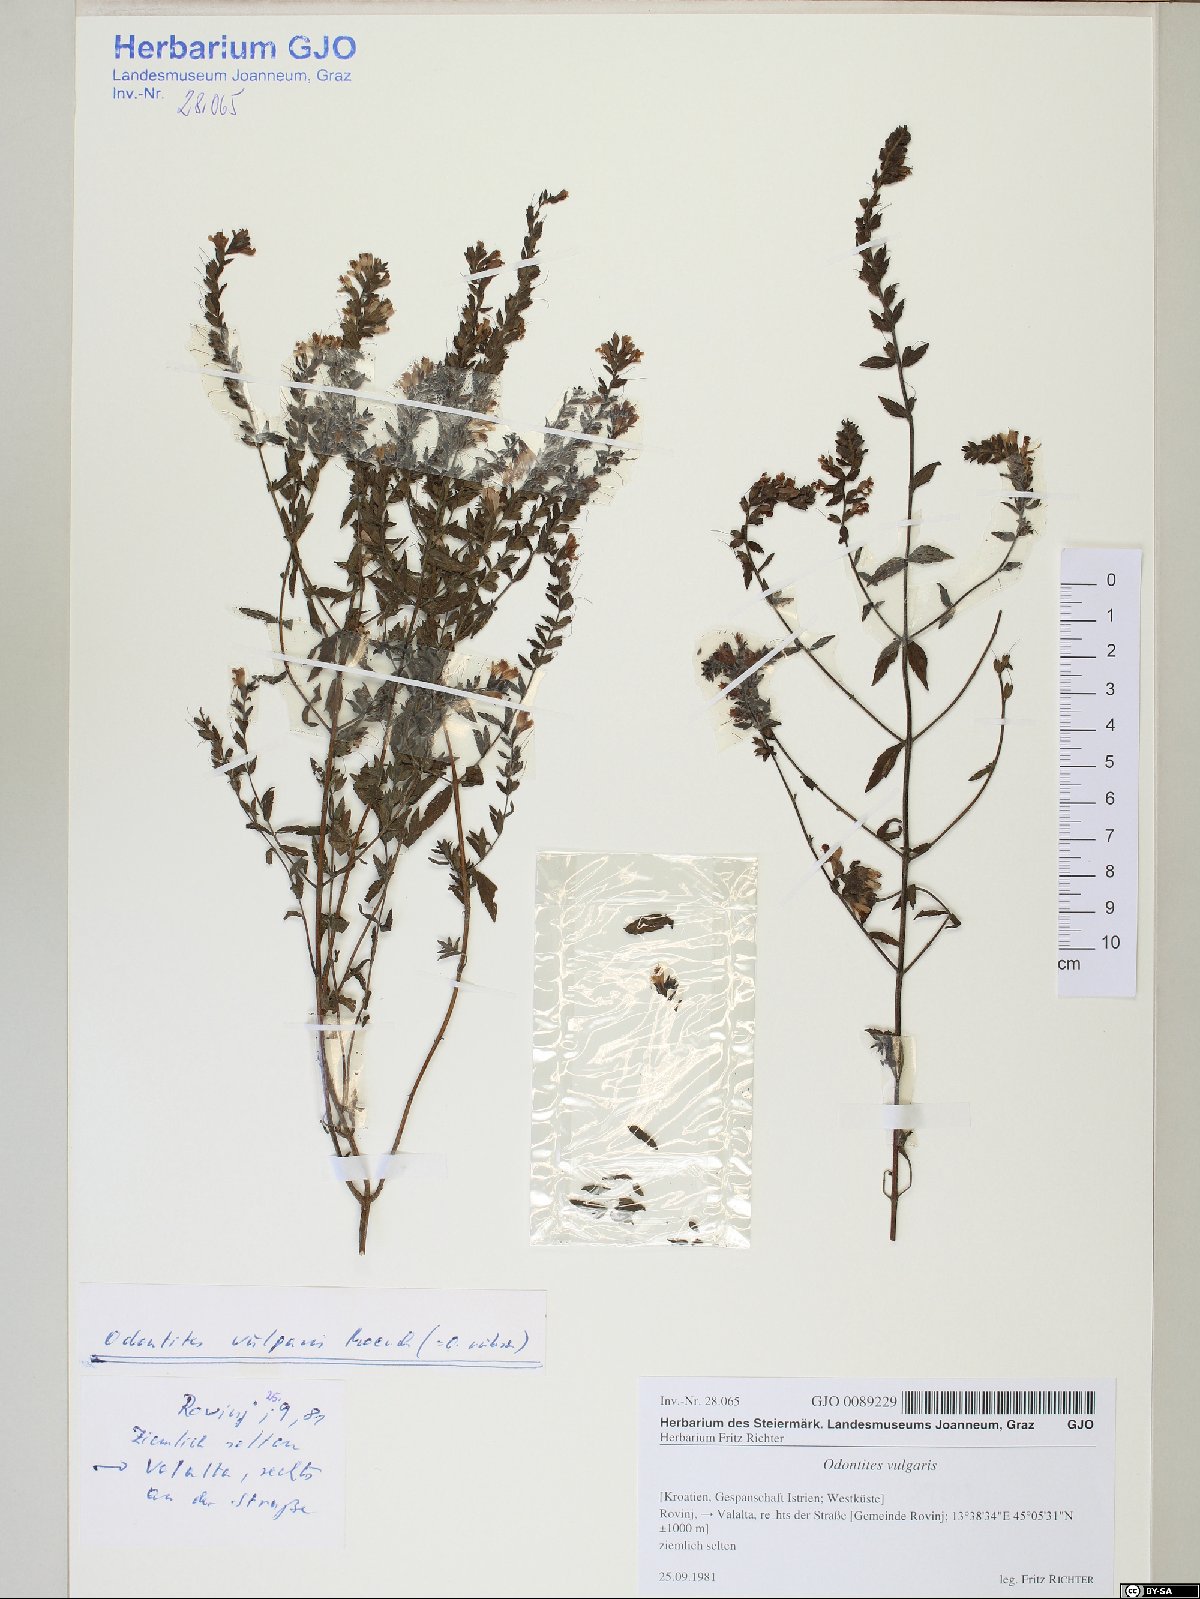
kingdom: Plantae
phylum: Tracheophyta
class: Magnoliopsida
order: Lamiales
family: Orobanchaceae
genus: Odontites
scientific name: Odontites vulgaris
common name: Broomrape
